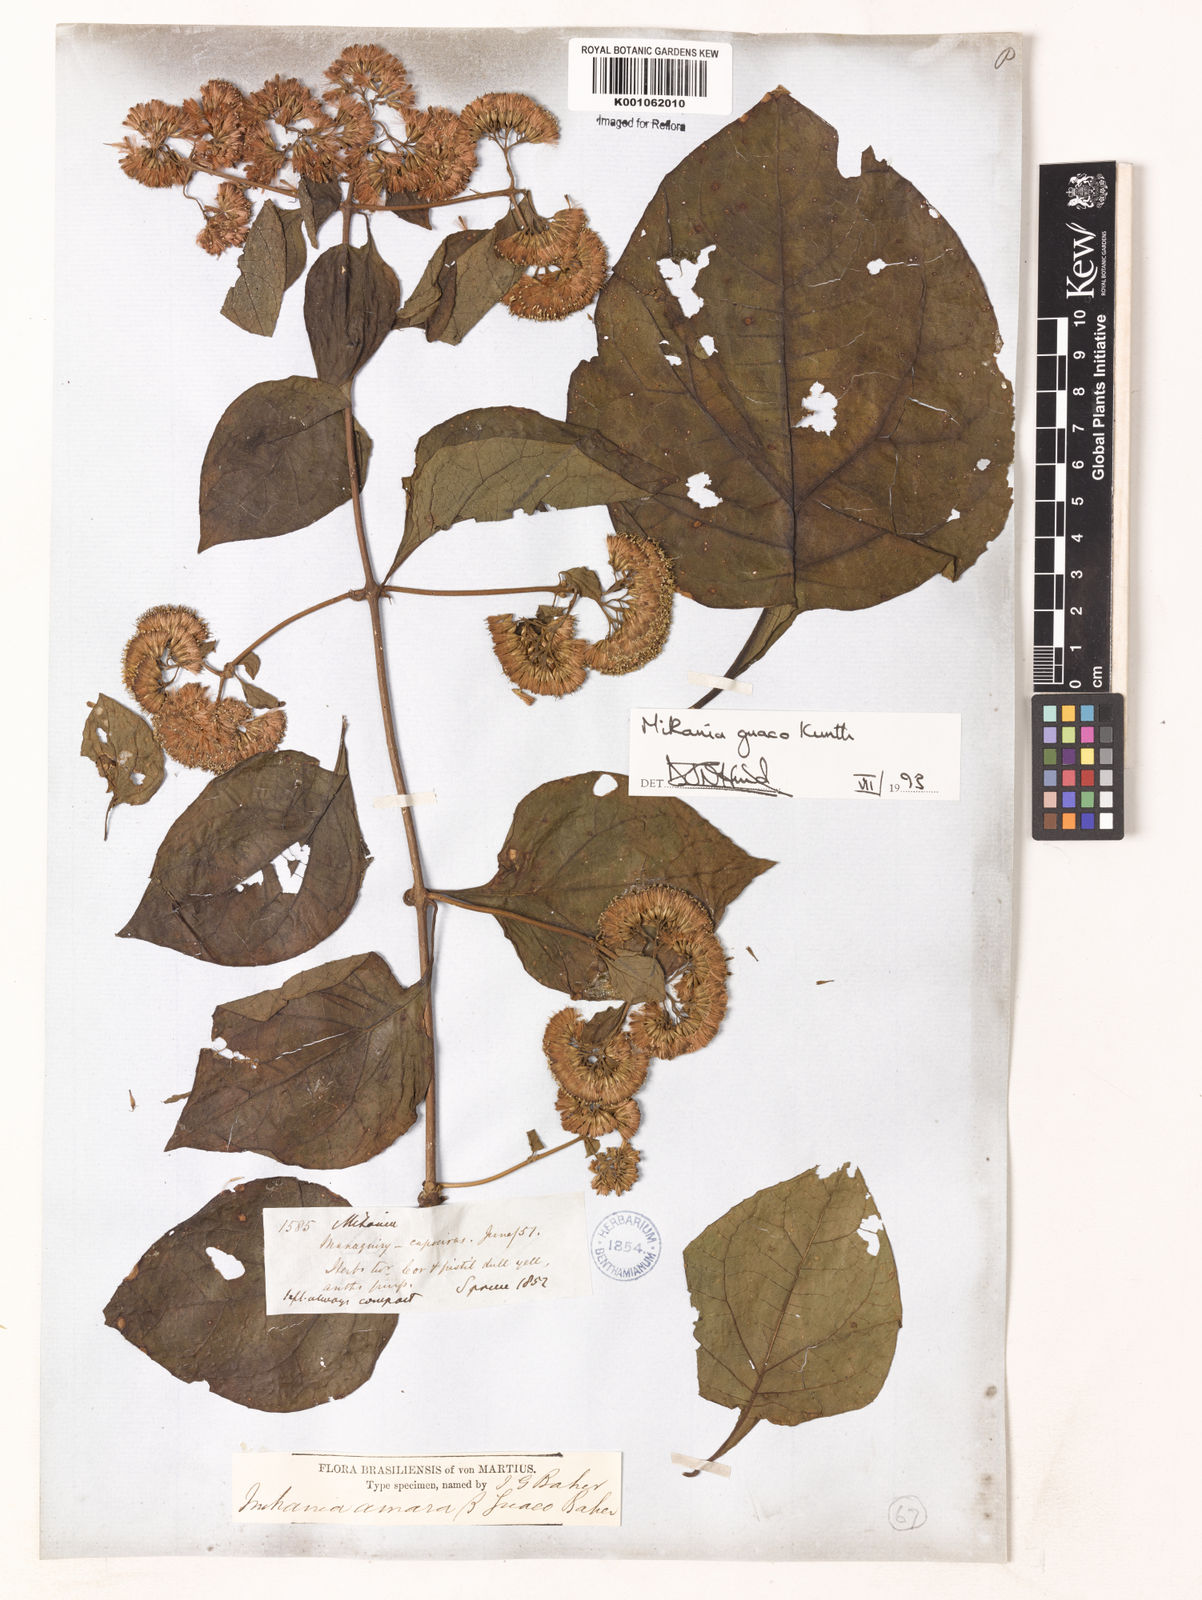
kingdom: Plantae
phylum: Tracheophyta
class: Magnoliopsida
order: Asterales
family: Asteraceae
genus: Mikania
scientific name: Mikania guaco
